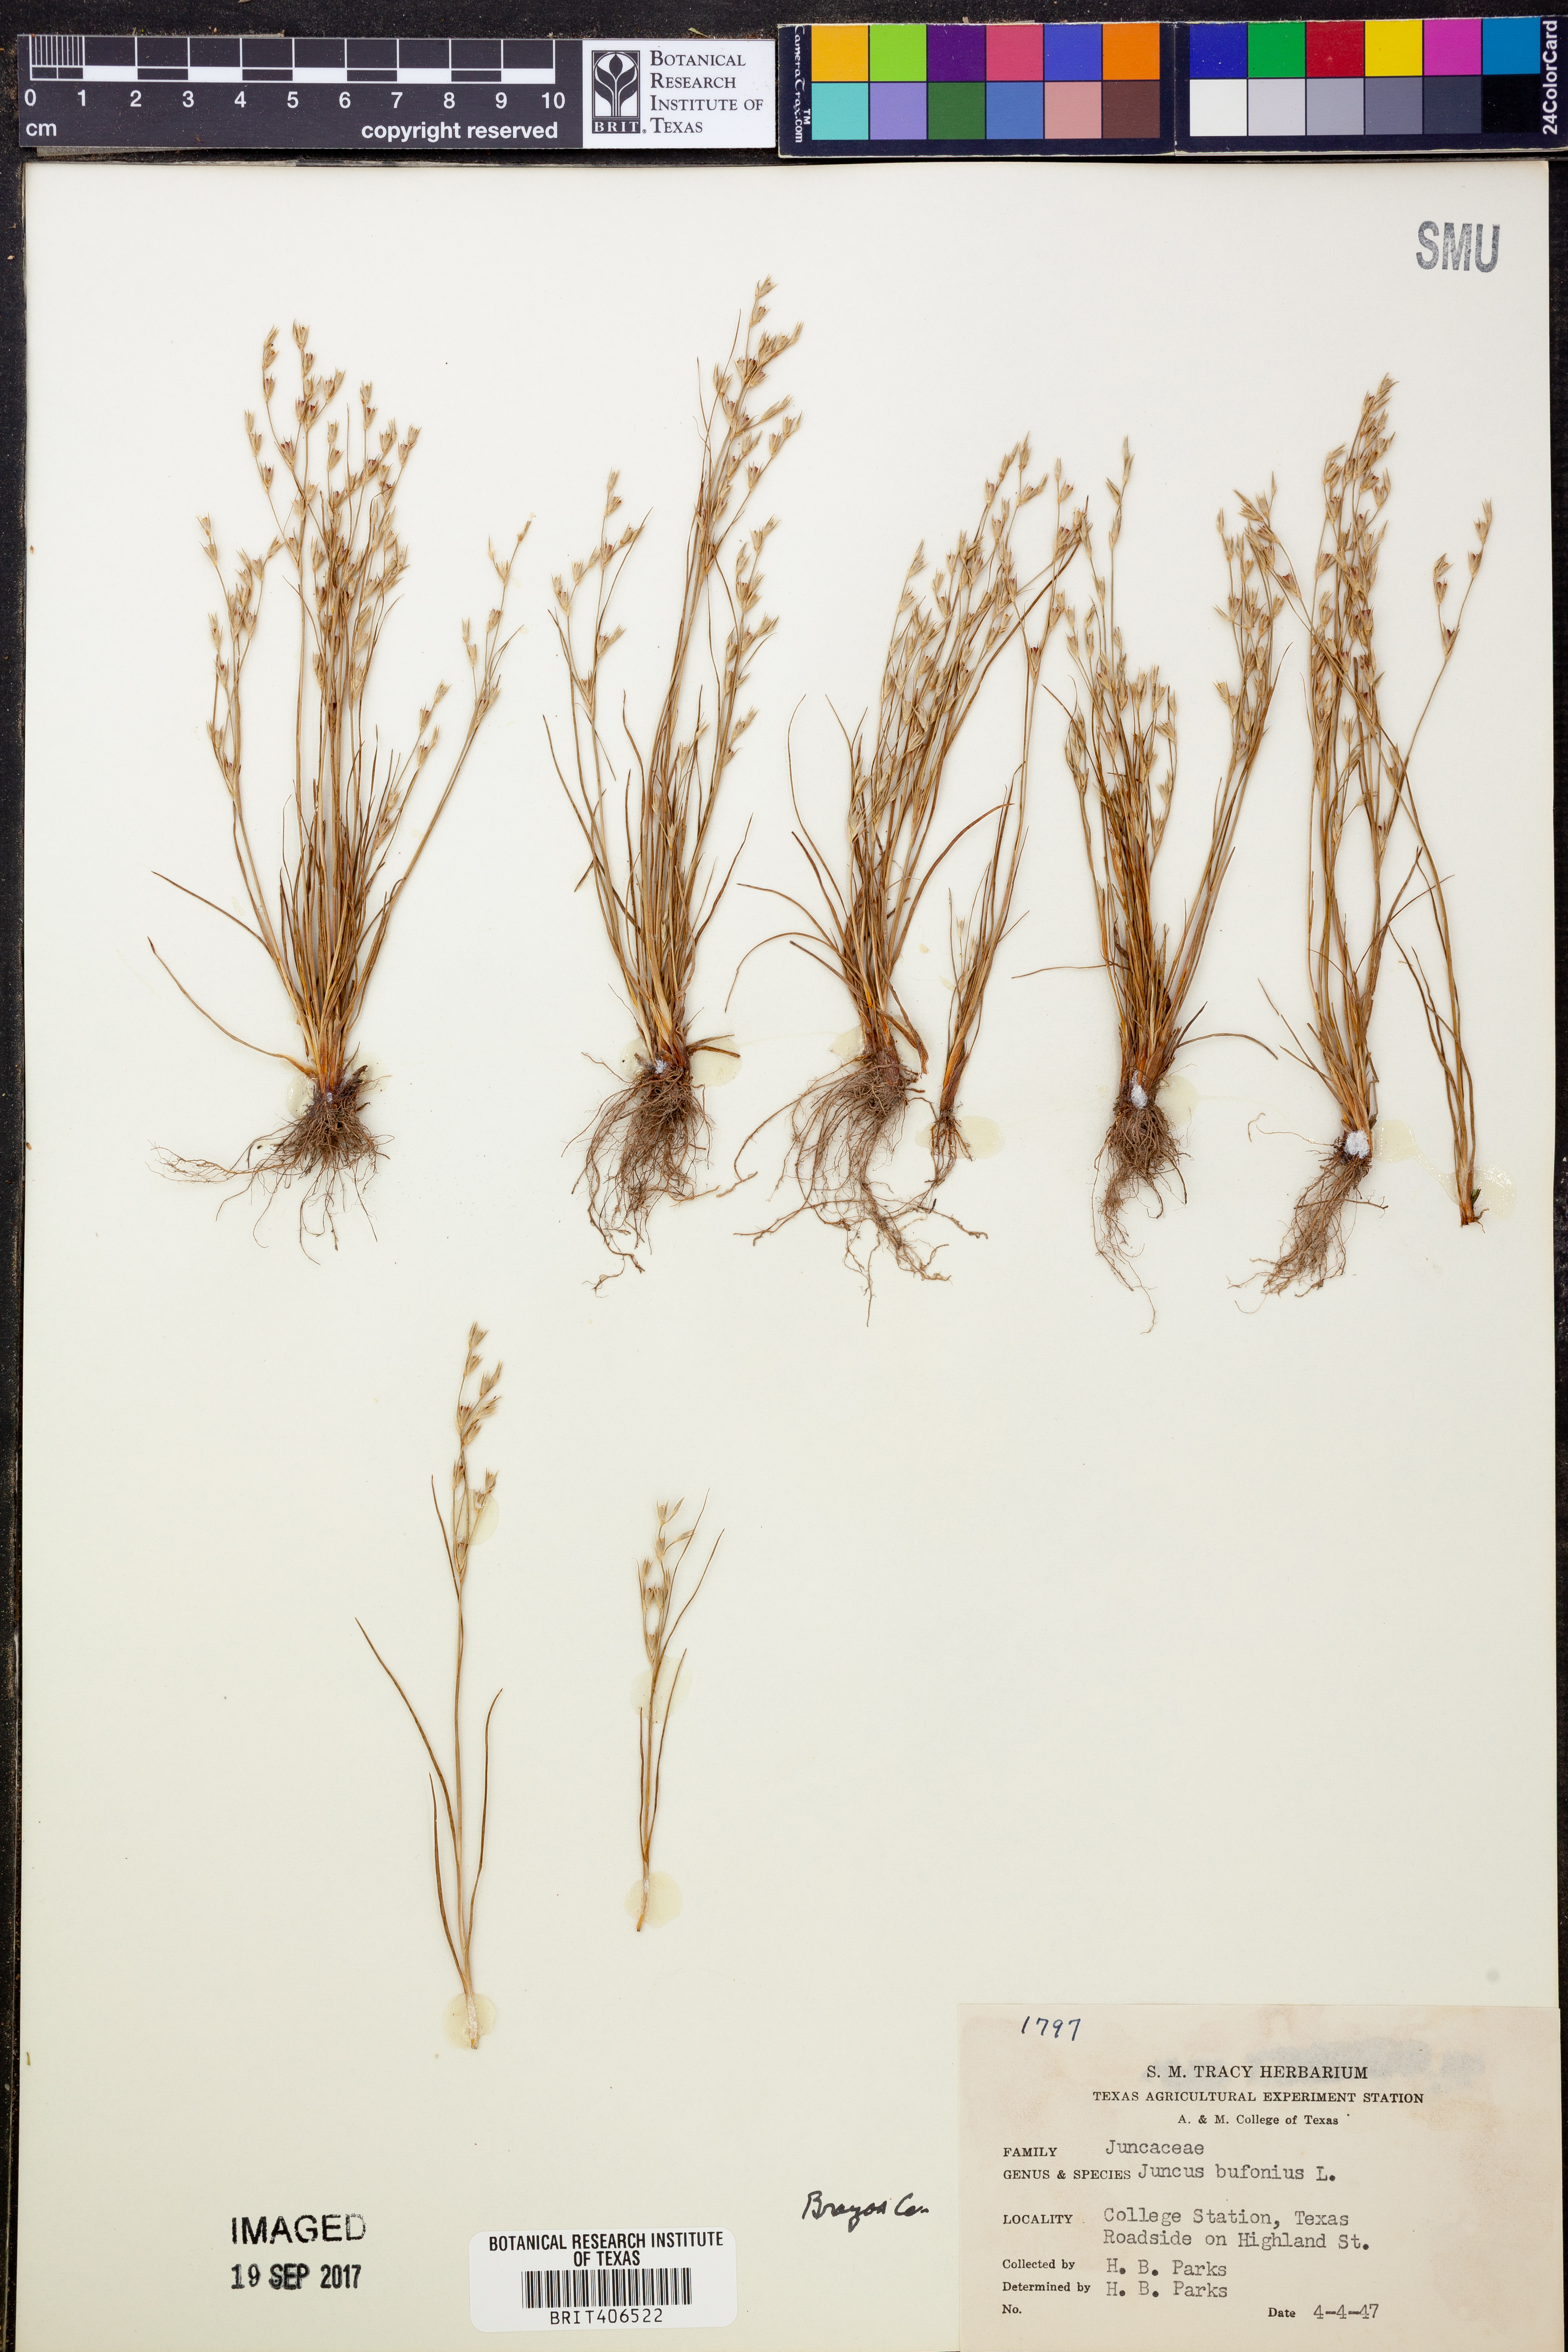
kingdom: Plantae
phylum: Tracheophyta
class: Liliopsida
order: Poales
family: Juncaceae
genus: Juncus
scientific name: Juncus bufonius
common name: Toad rush
